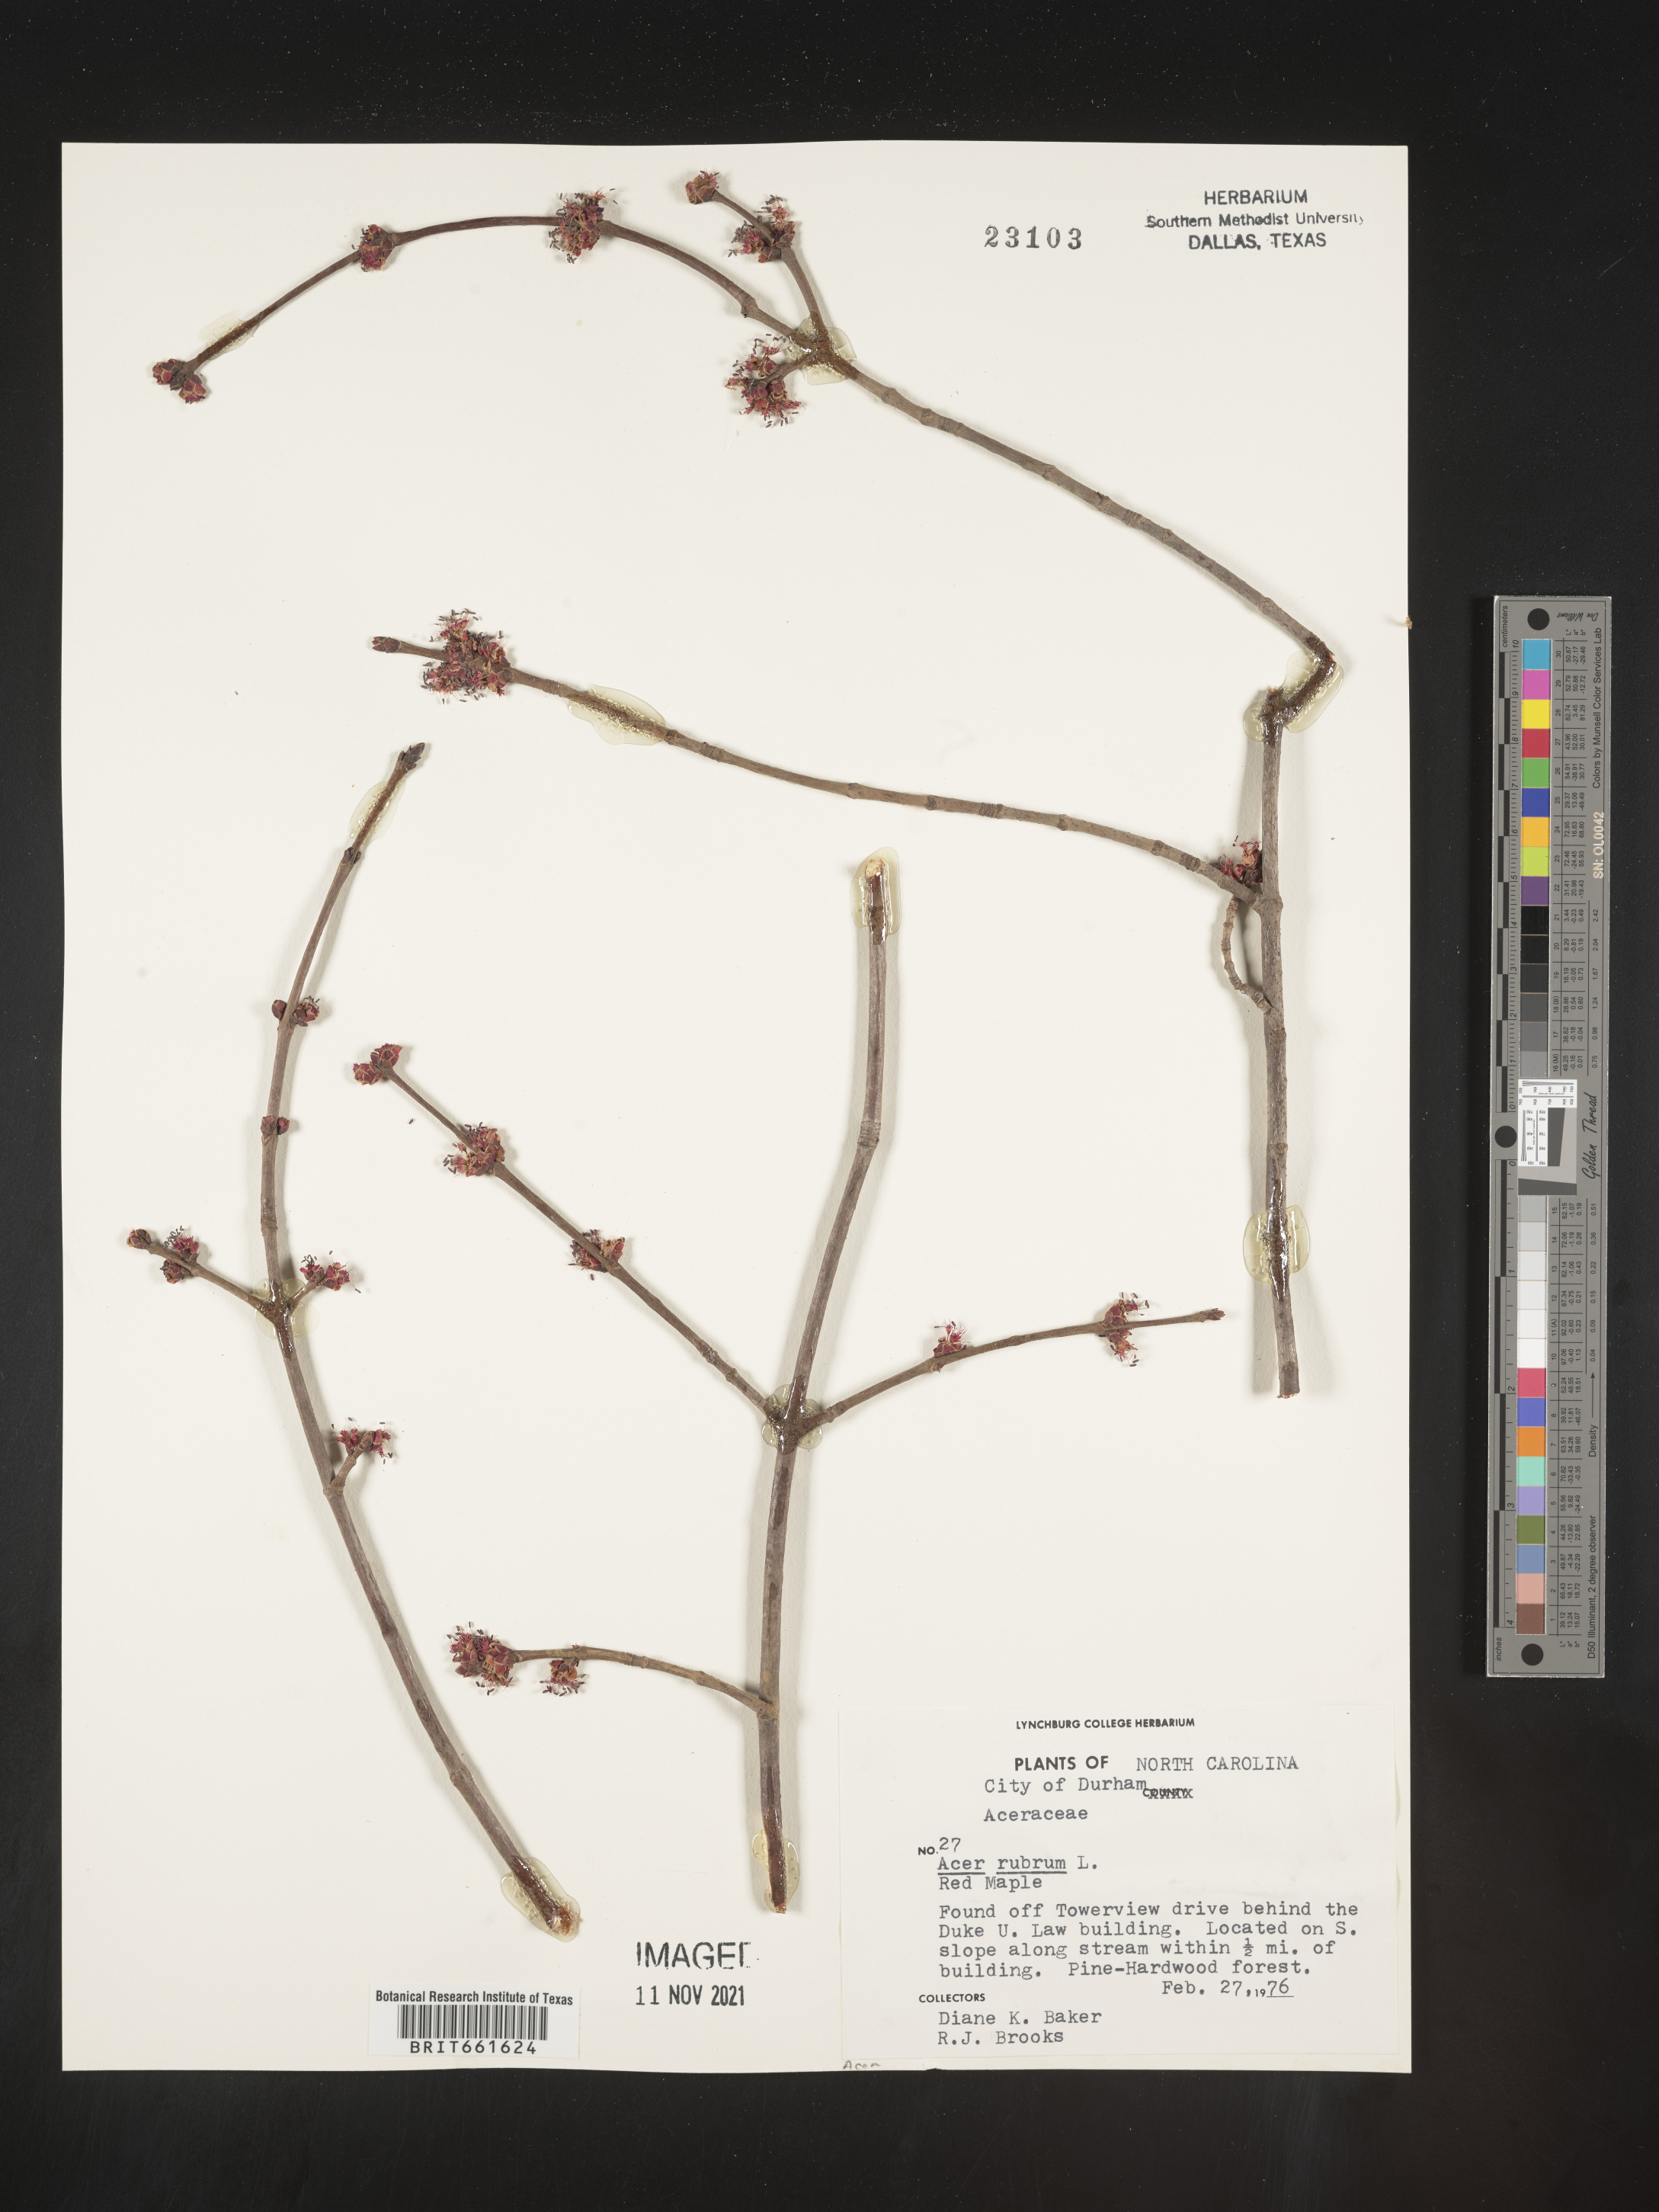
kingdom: Plantae
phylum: Tracheophyta
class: Magnoliopsida
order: Sapindales
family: Sapindaceae
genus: Acer
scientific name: Acer rubrum
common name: Red maple
